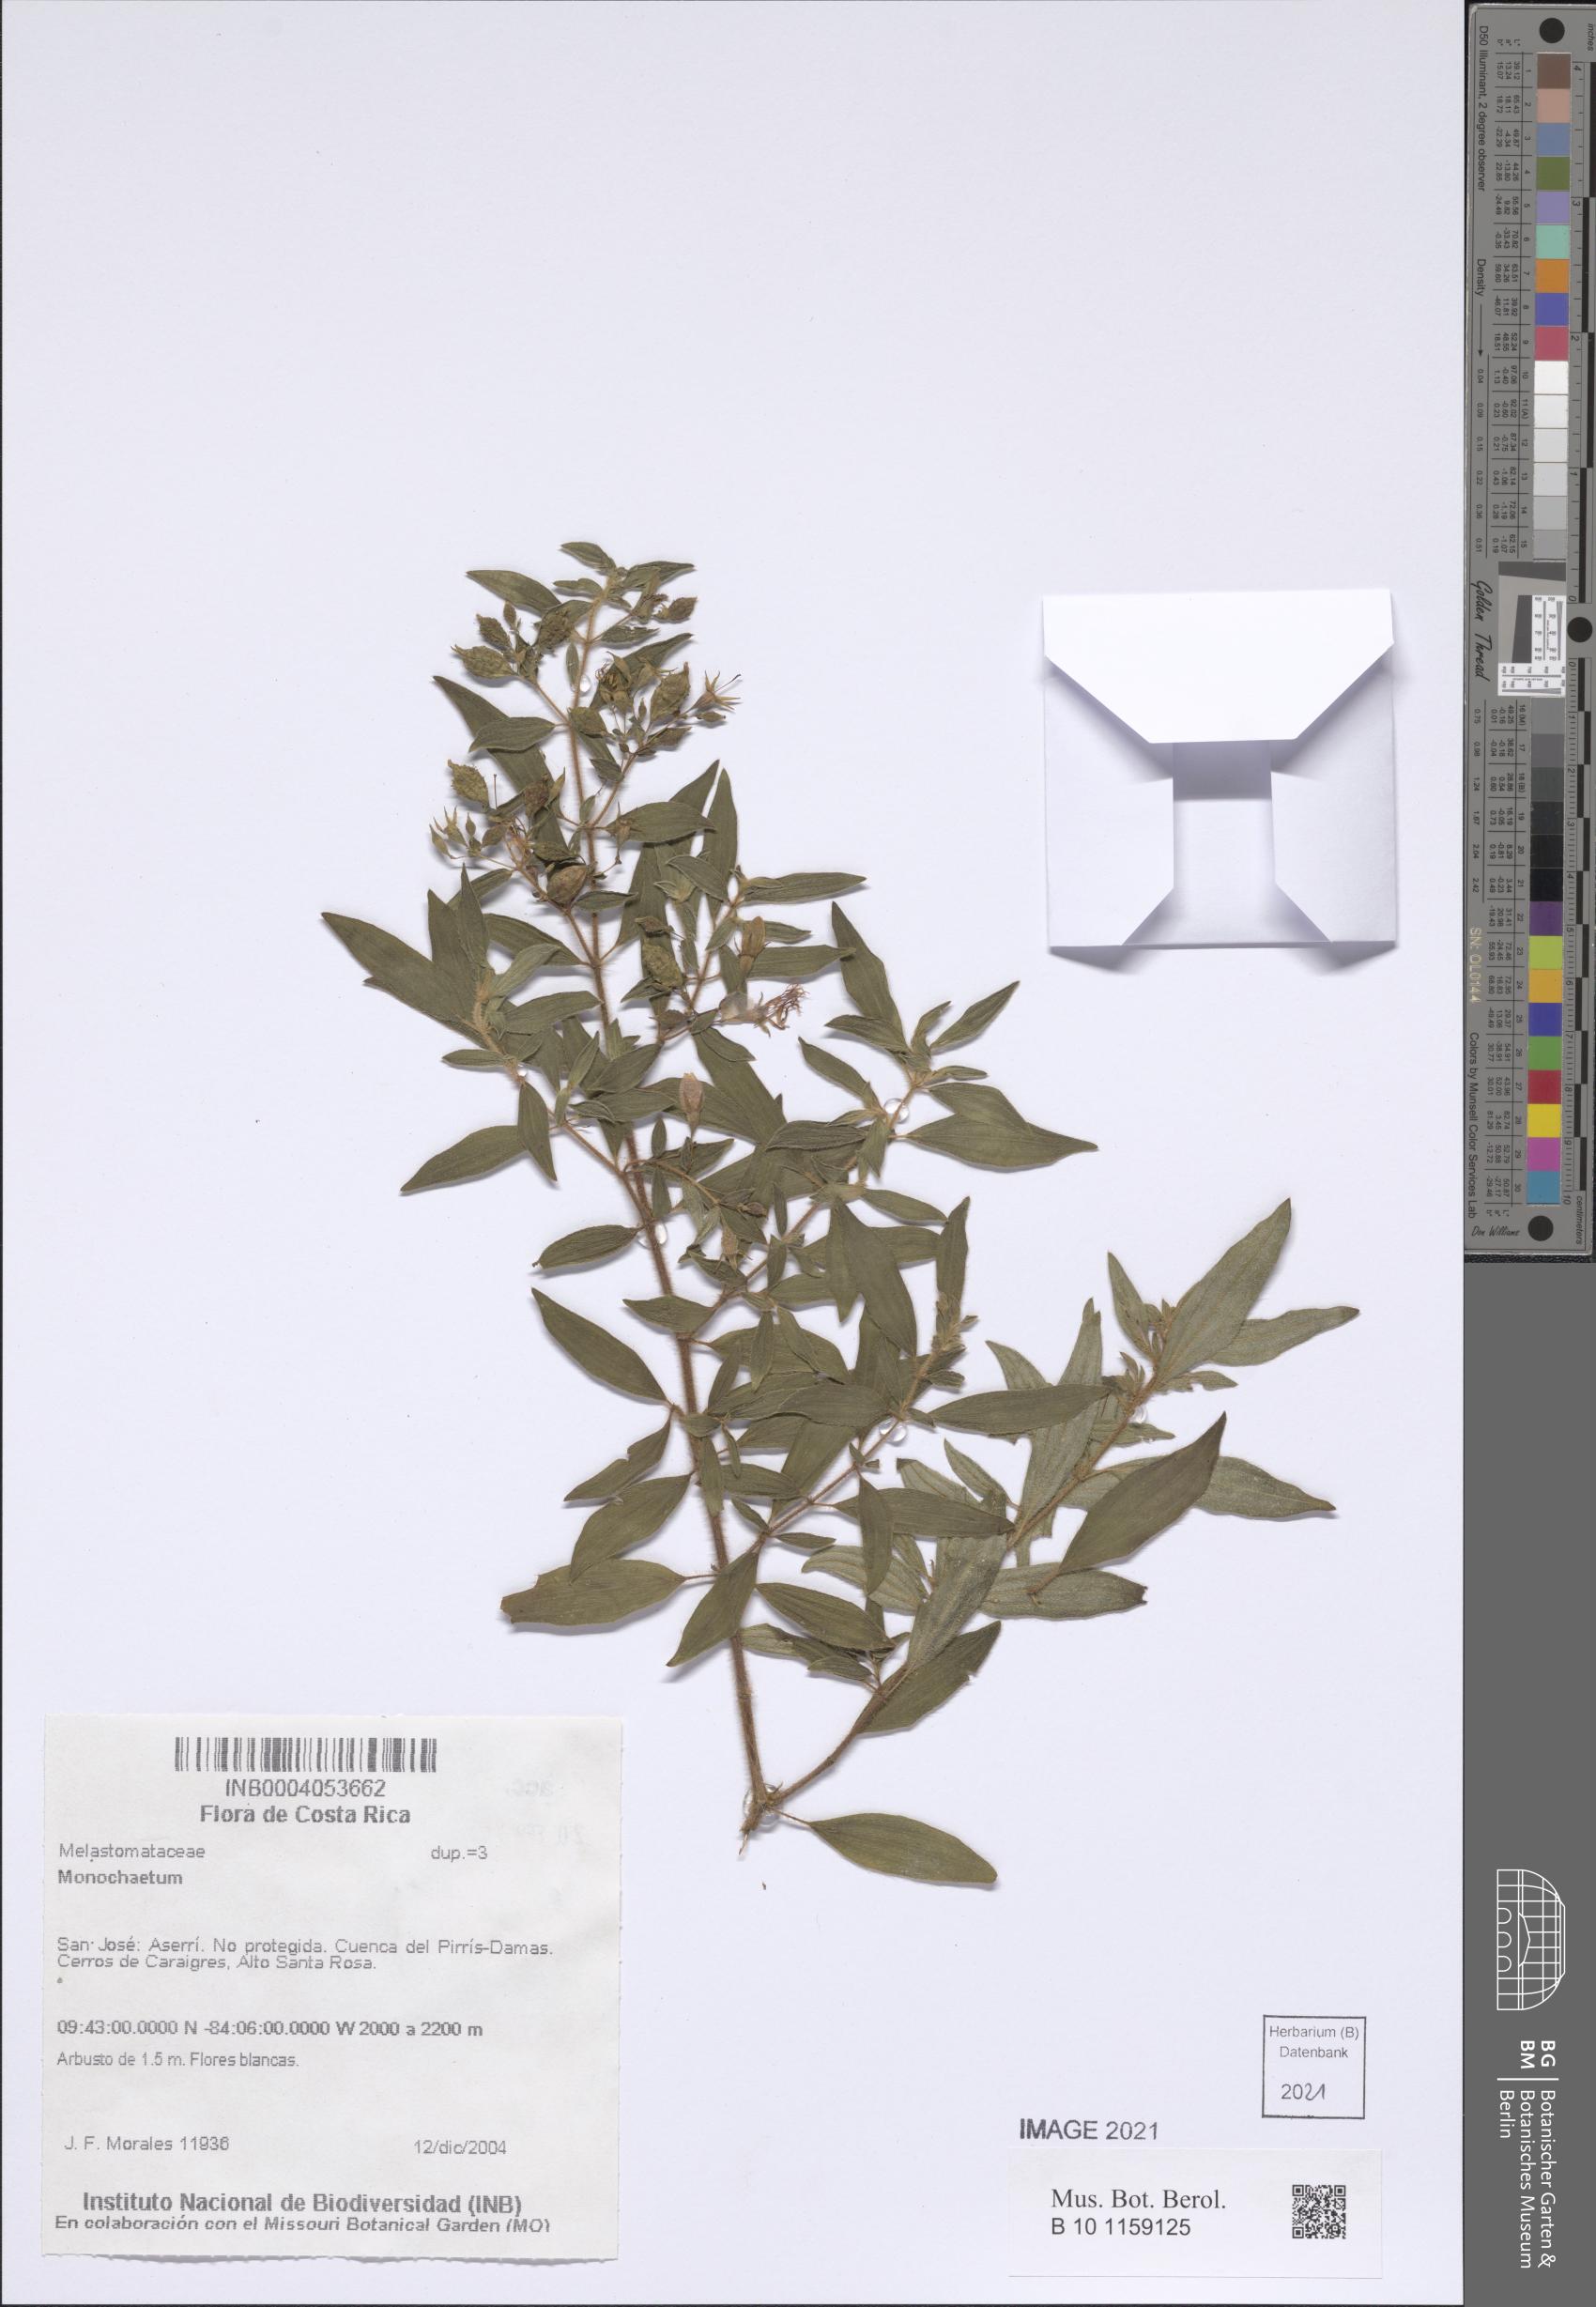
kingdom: Plantae
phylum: Tracheophyta
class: Magnoliopsida
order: Myrtales
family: Melastomataceae
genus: Monochaetum
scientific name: Monochaetum
